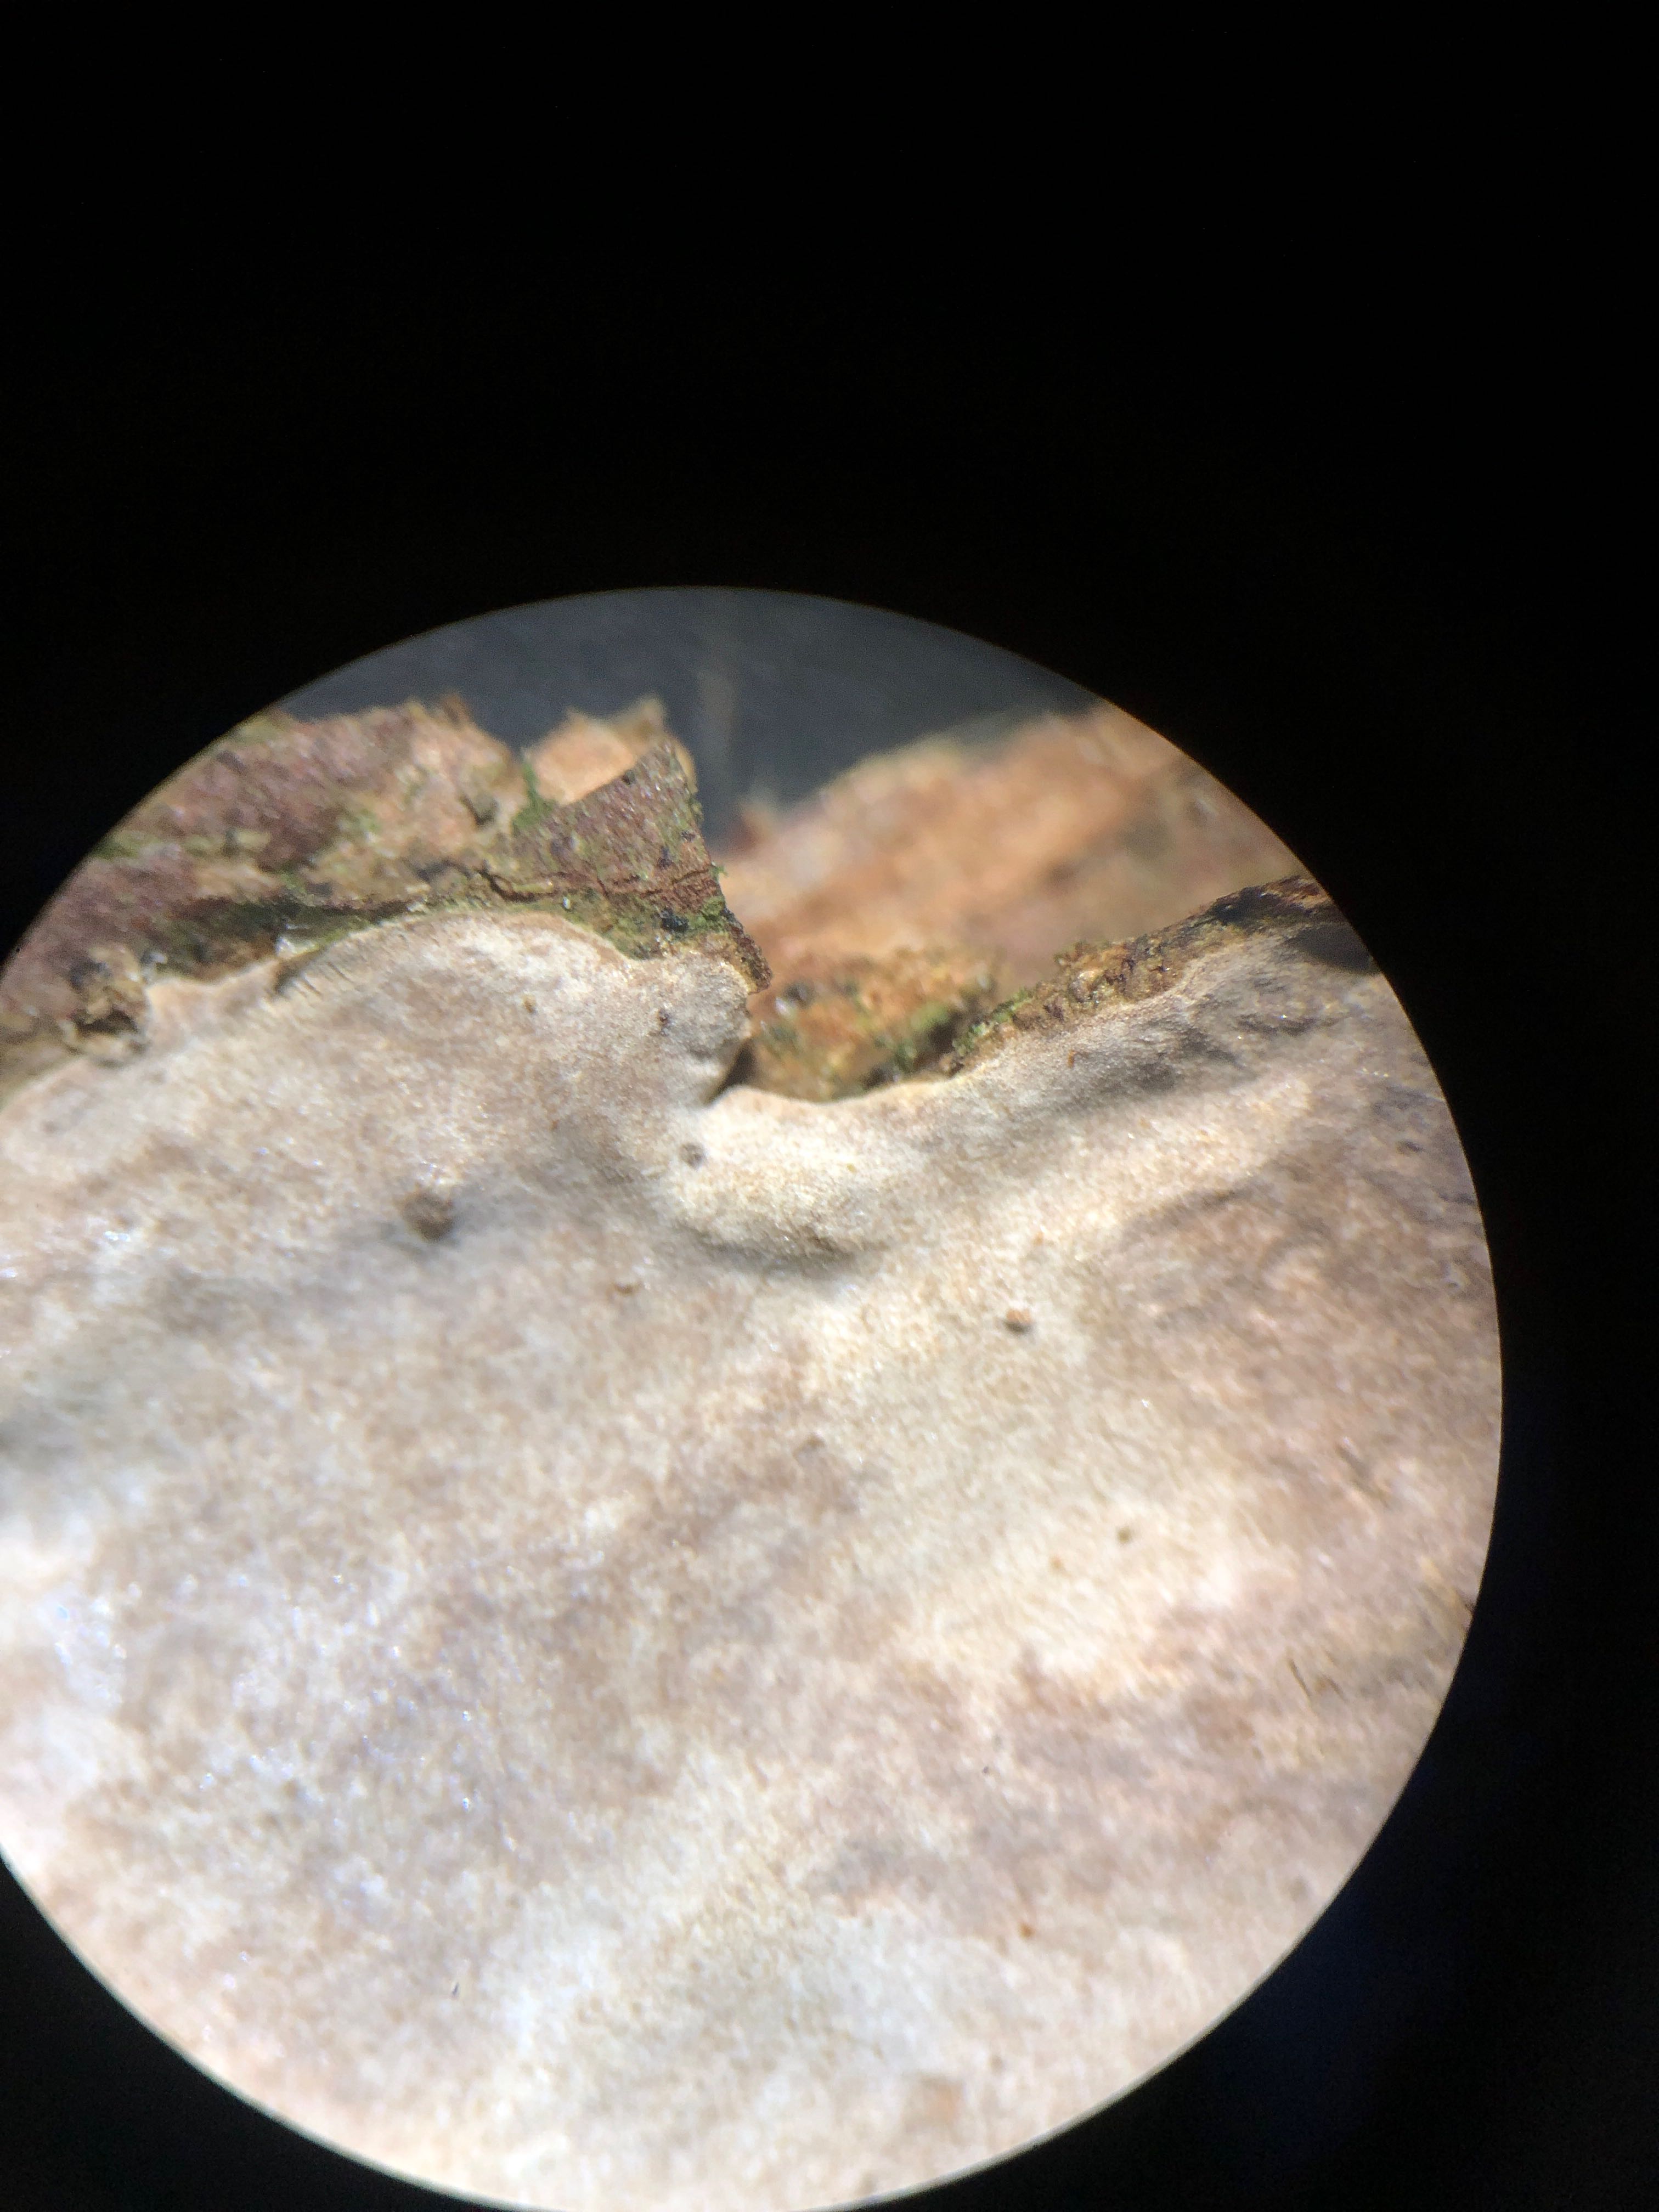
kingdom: Fungi
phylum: Basidiomycota
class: Agaricomycetes
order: Russulales
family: Echinodontiaceae
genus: Amylostereum
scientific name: Amylostereum laevigatum
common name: ene-lædersvamp
